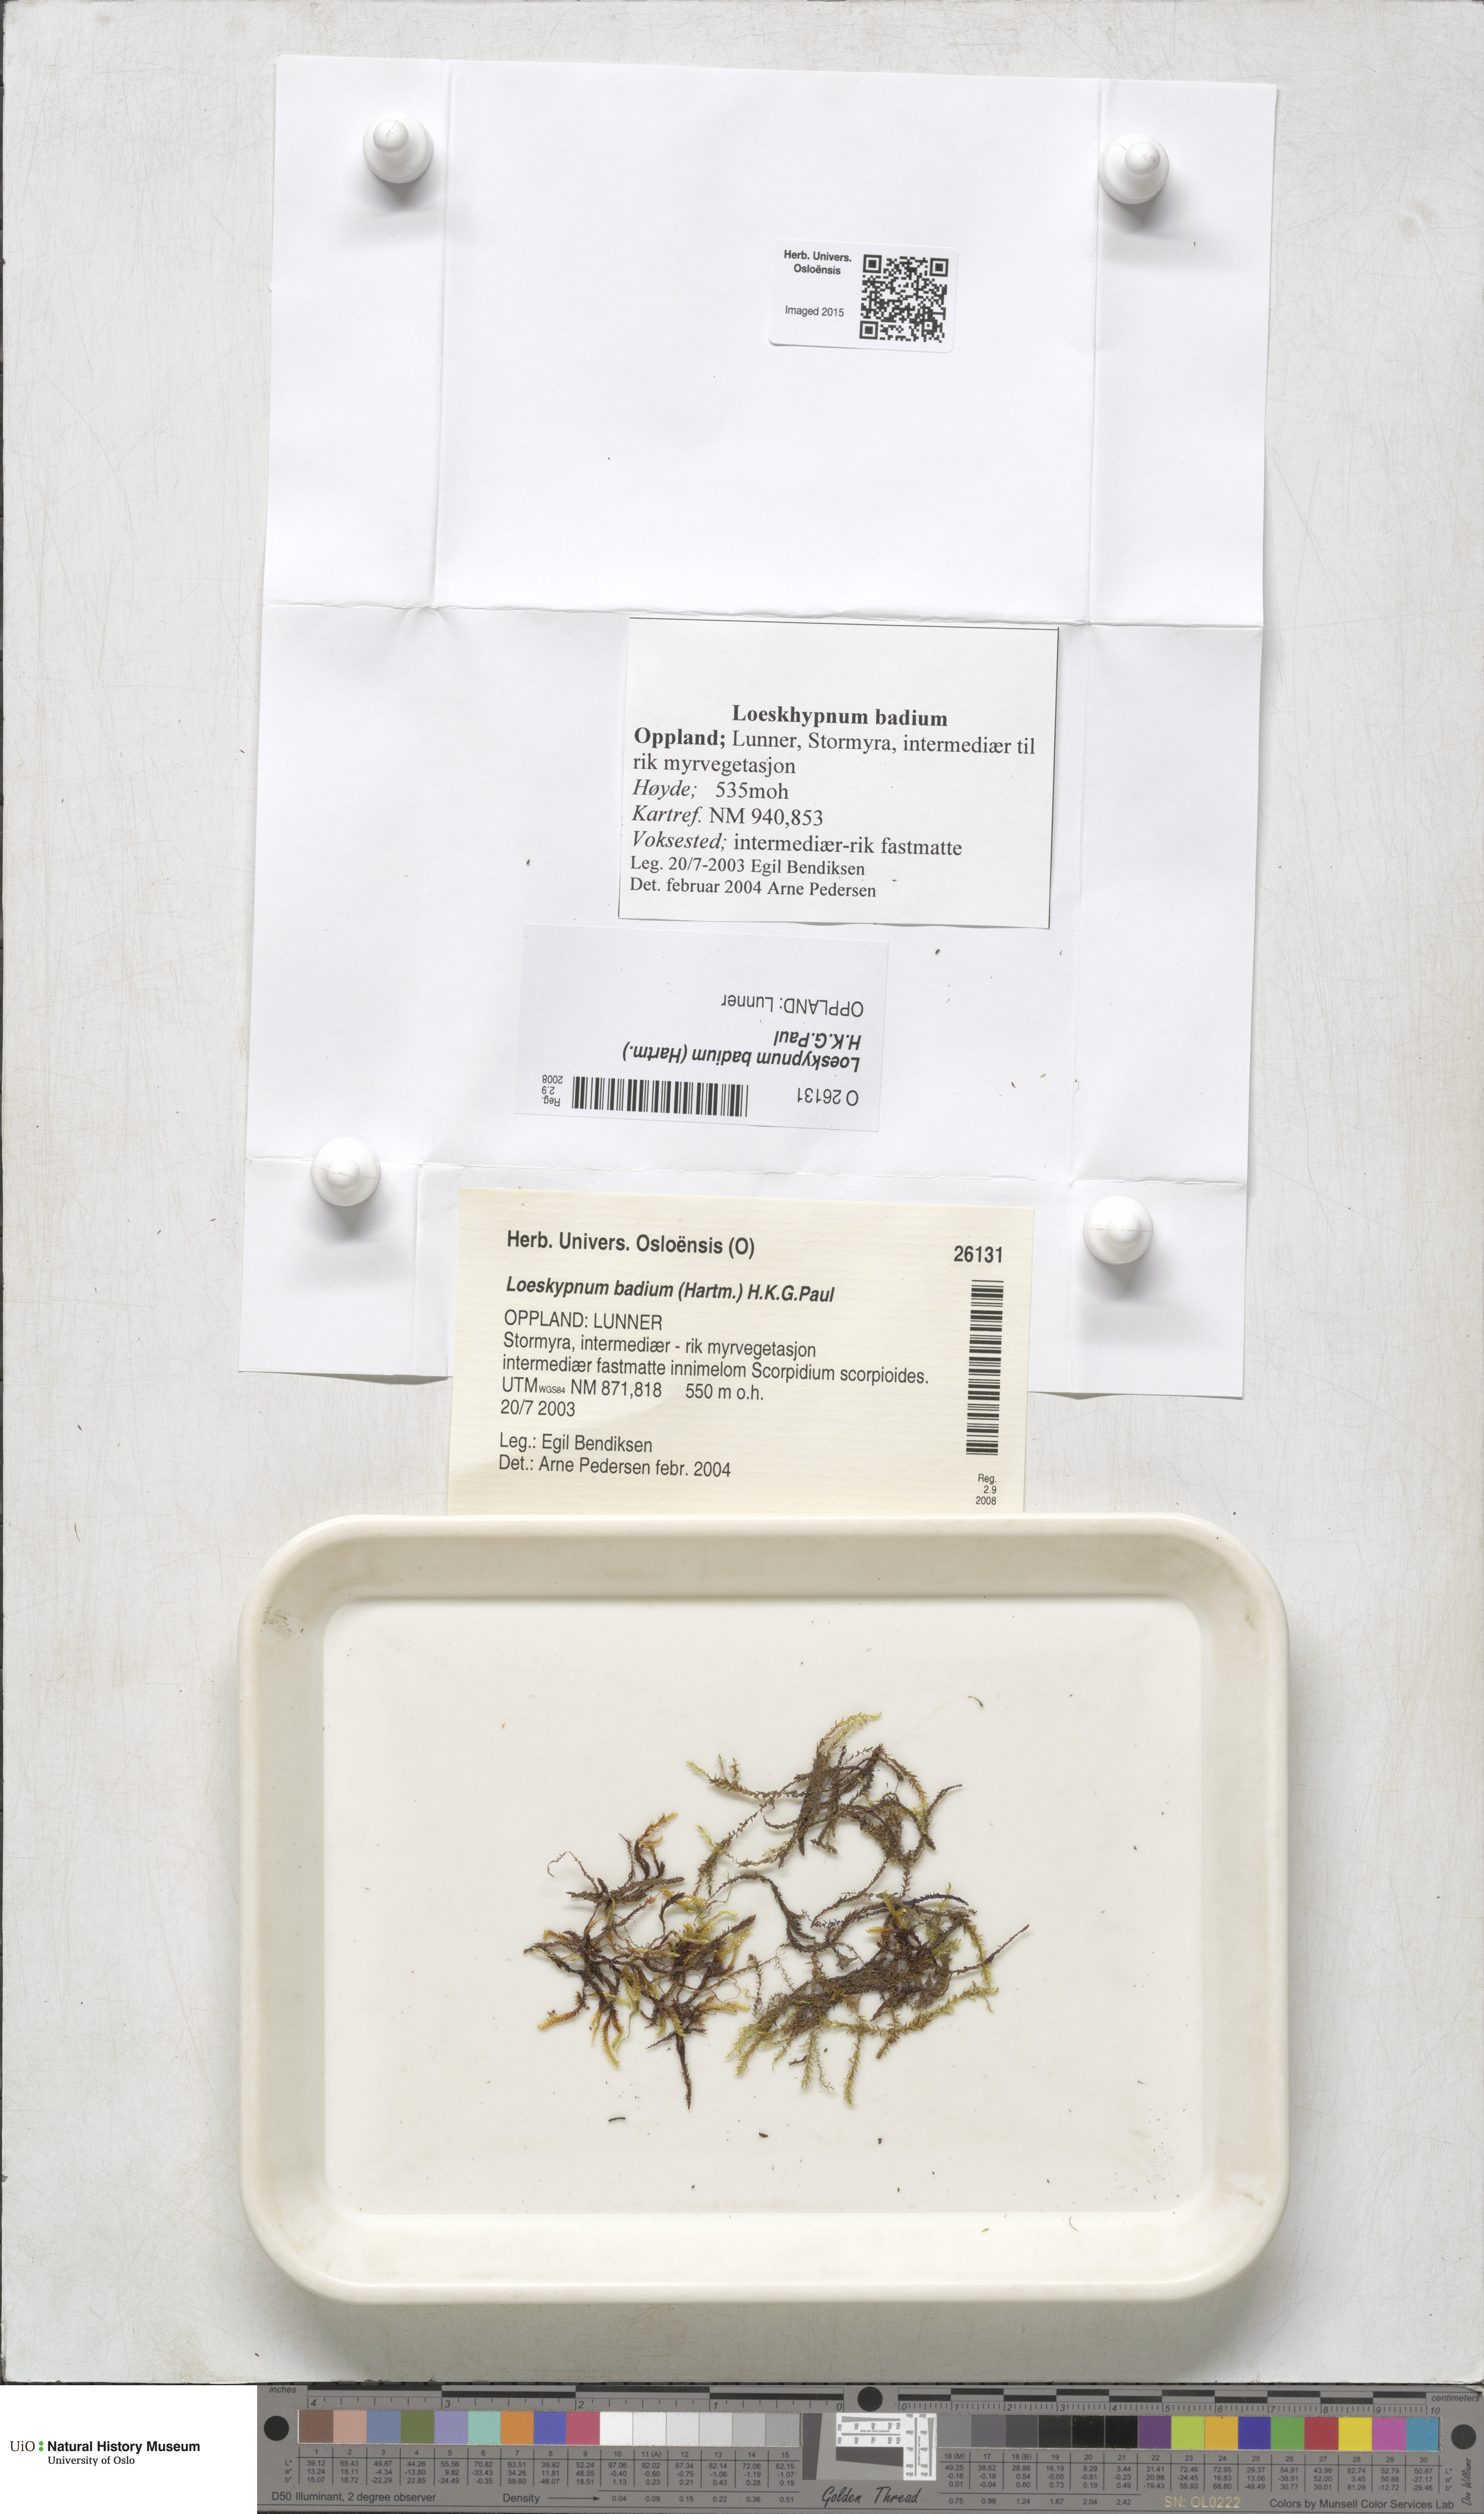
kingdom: Plantae
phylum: Bryophyta
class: Bryopsida
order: Hypnales
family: Calliergonaceae
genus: Loeskypnum
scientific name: Loeskypnum badium
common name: Sickle-leaved loeskypnum
